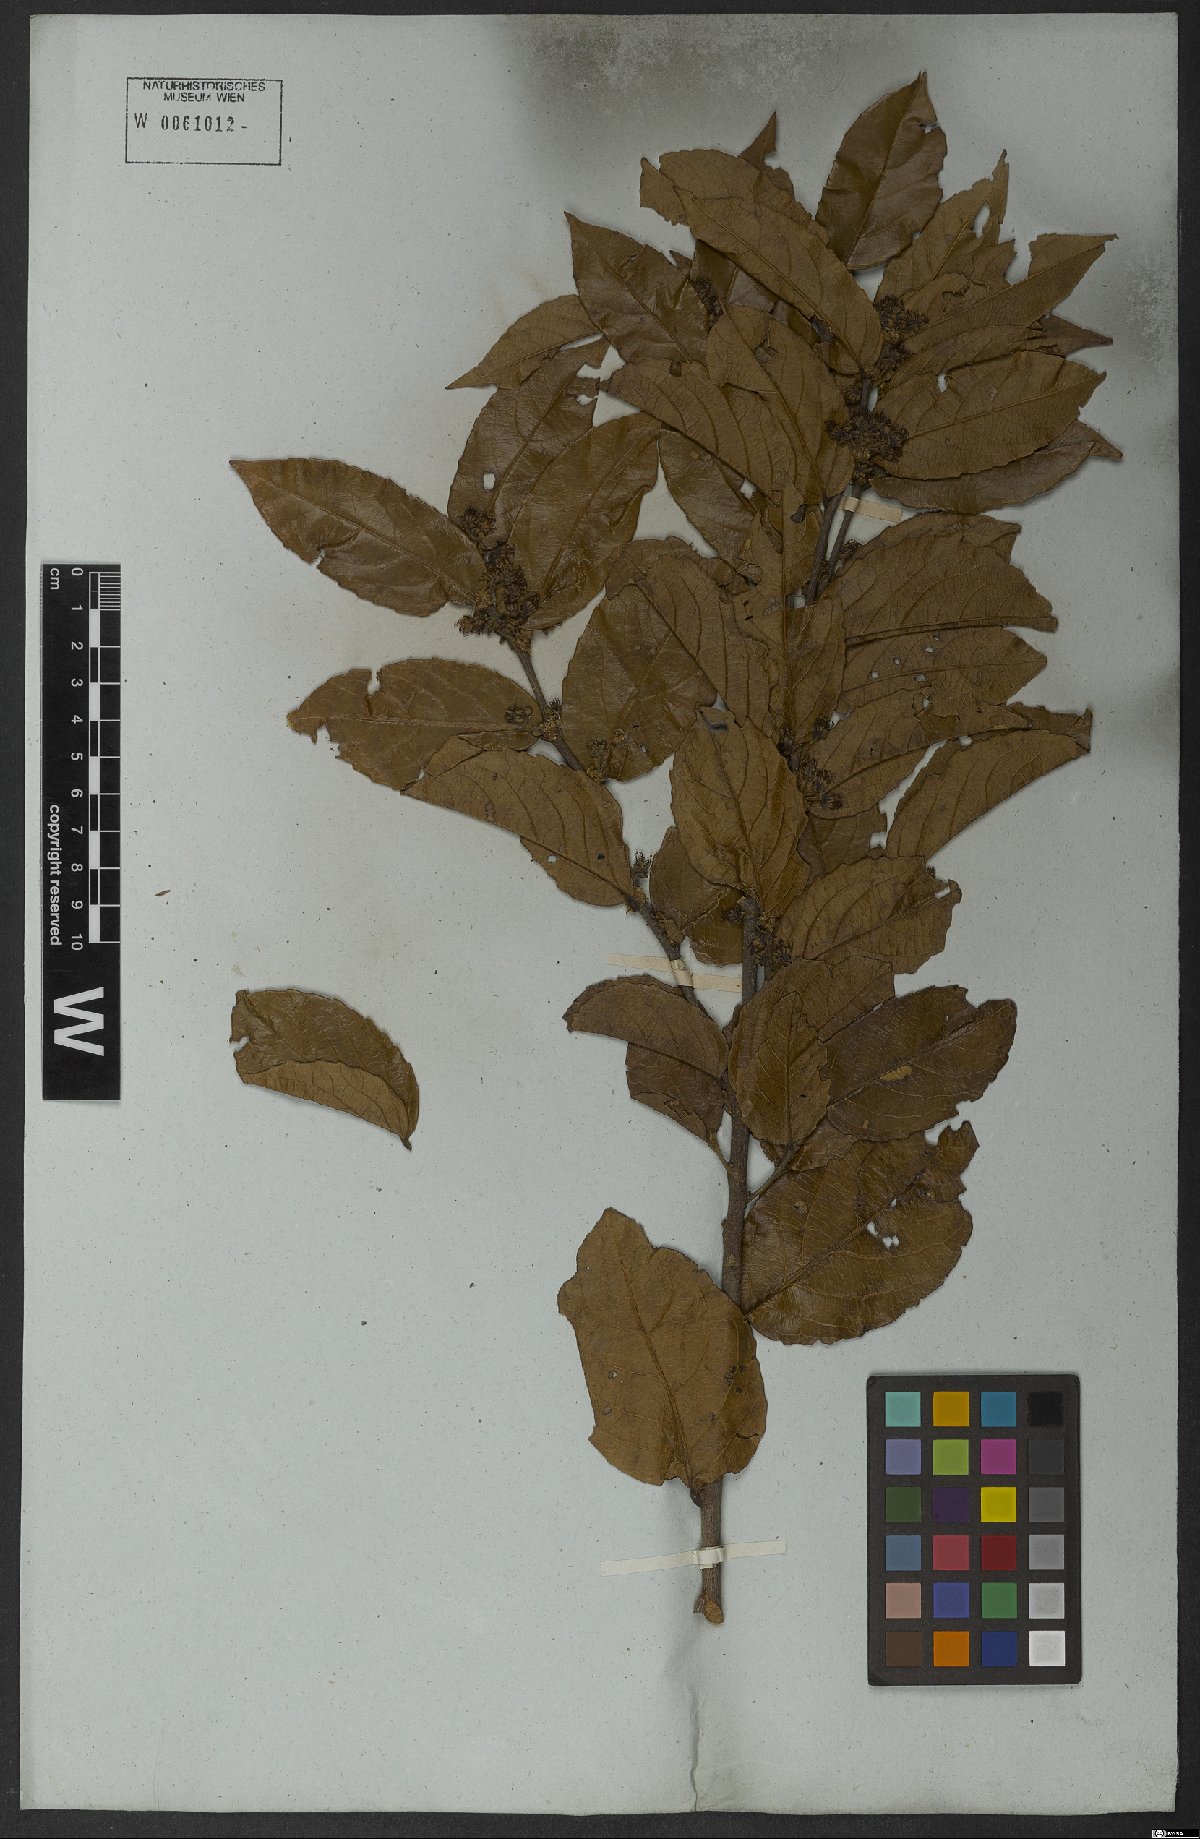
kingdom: Plantae
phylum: Tracheophyta
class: Magnoliopsida
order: Malpighiales
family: Salicaceae
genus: Casearia
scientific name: Casearia
